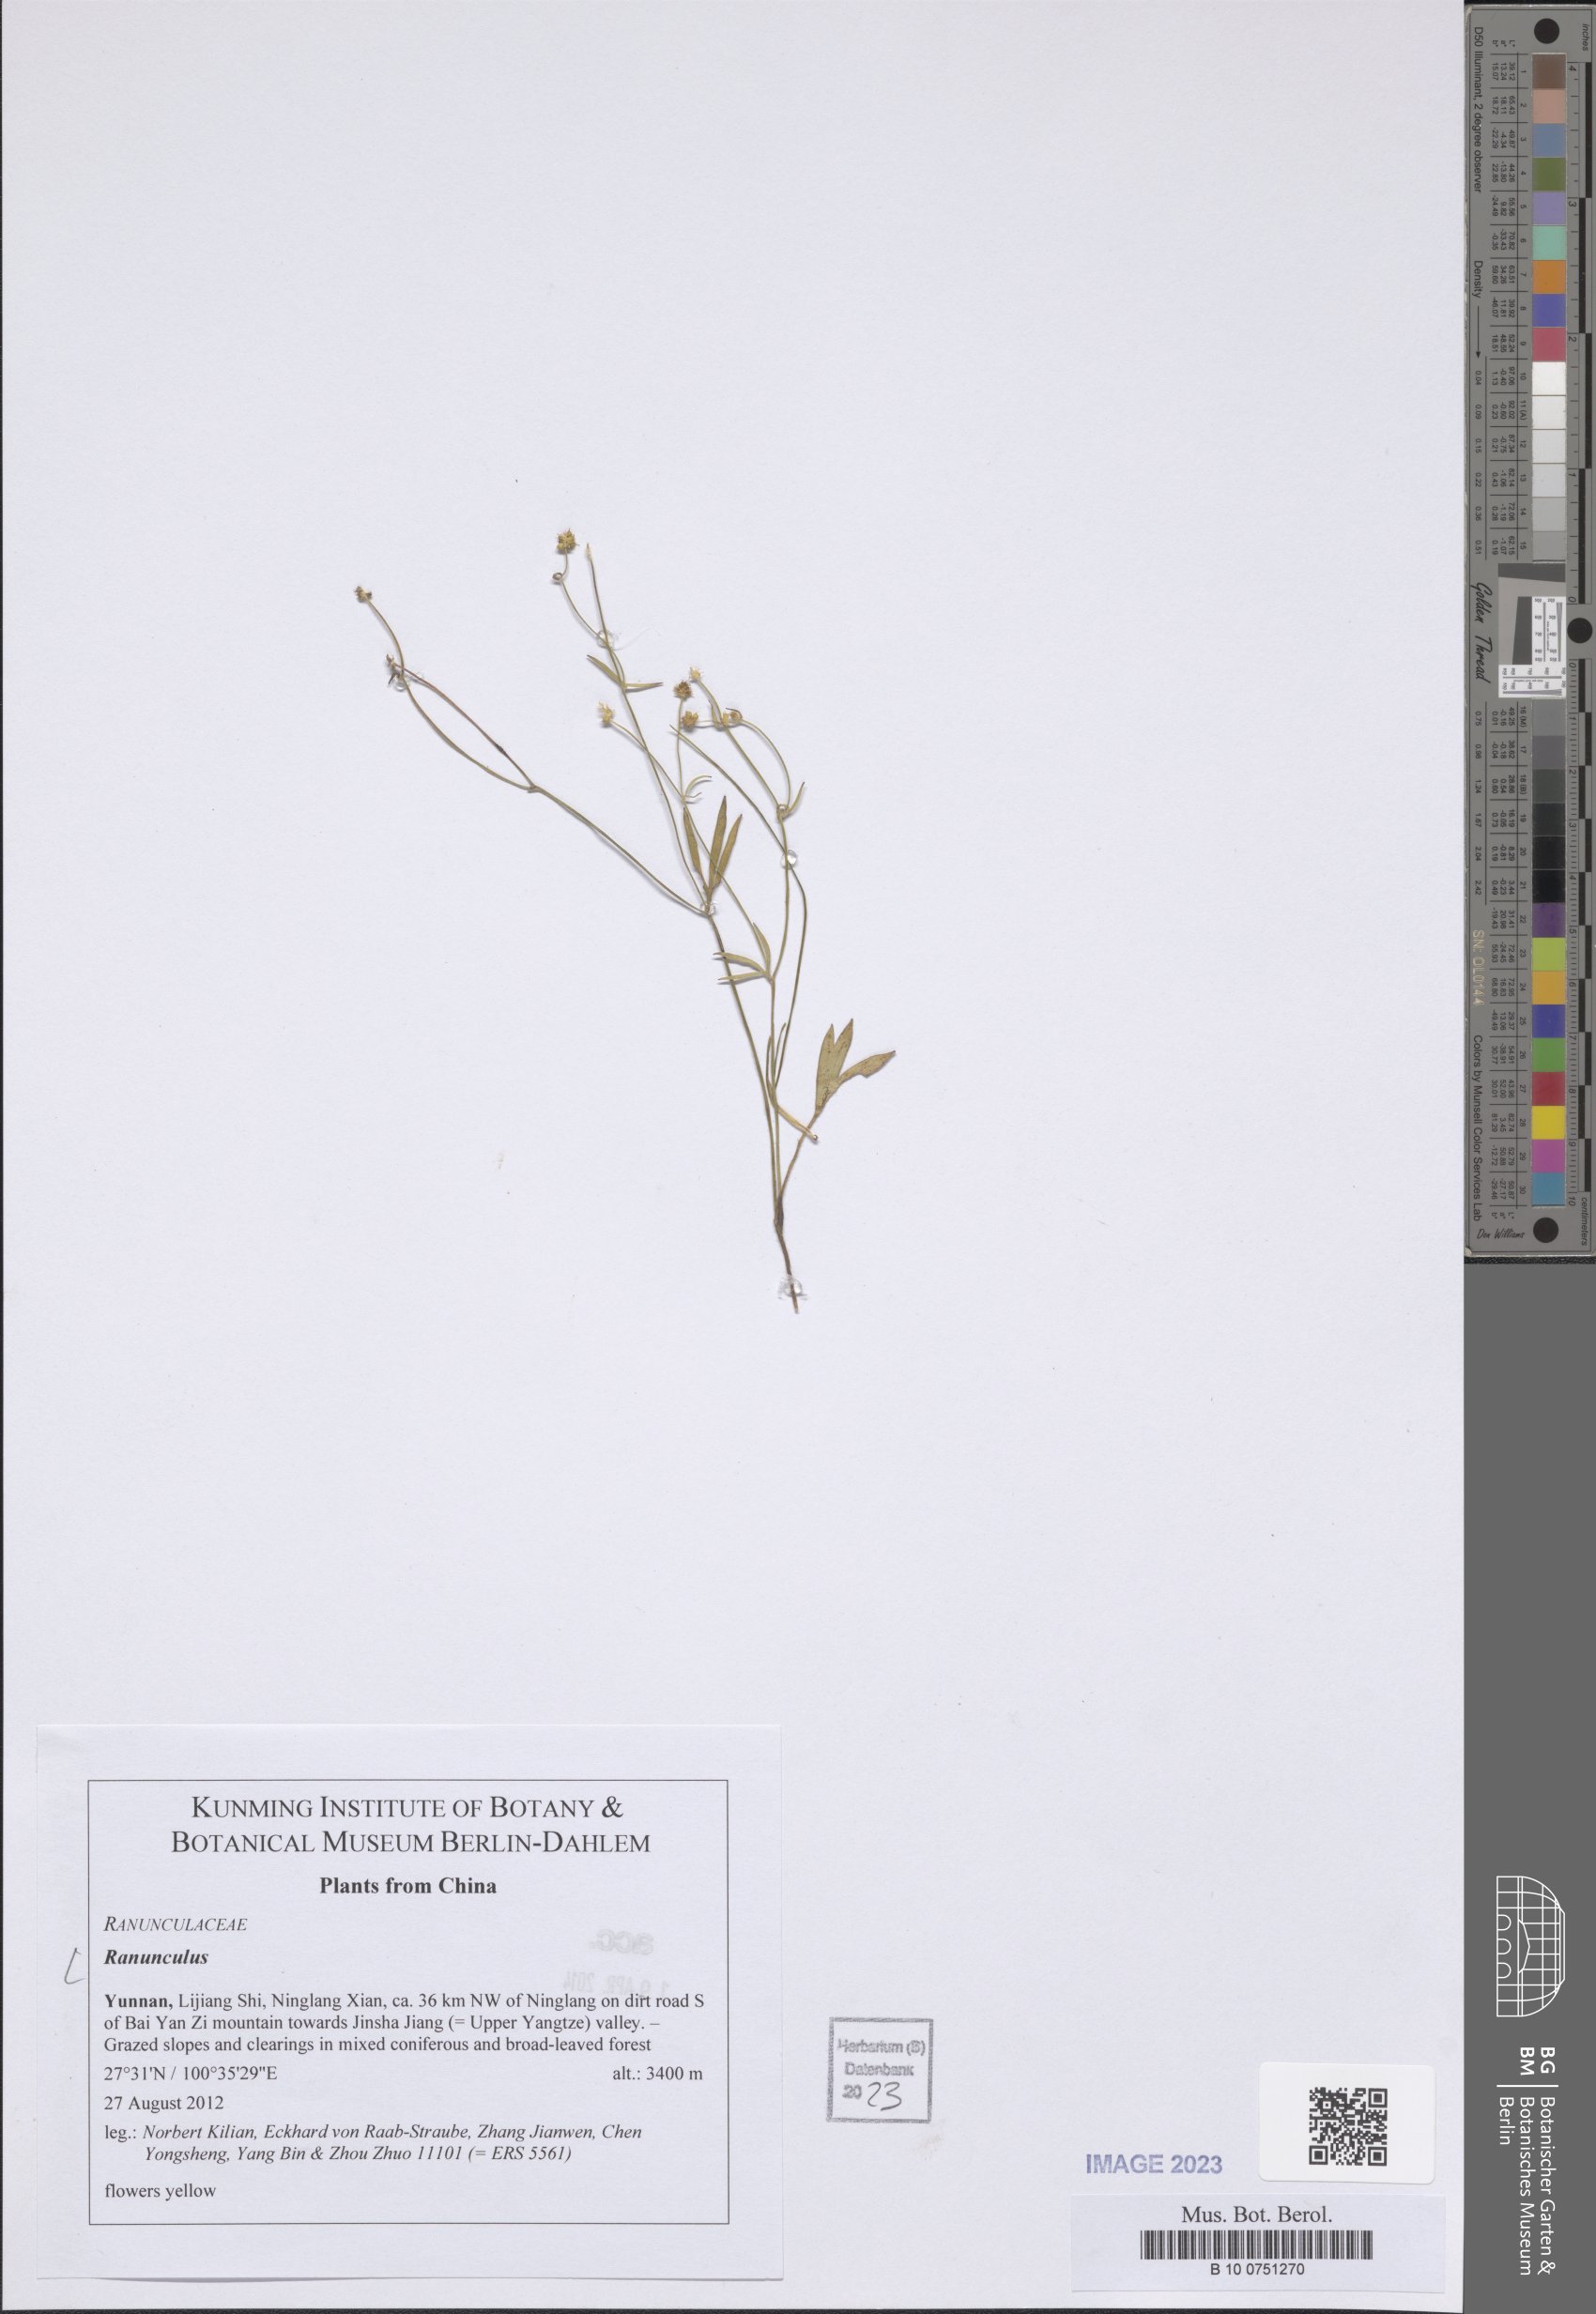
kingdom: Plantae
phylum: Tracheophyta
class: Magnoliopsida
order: Ranunculales
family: Ranunculaceae
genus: Ranunculus
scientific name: Ranunculus
